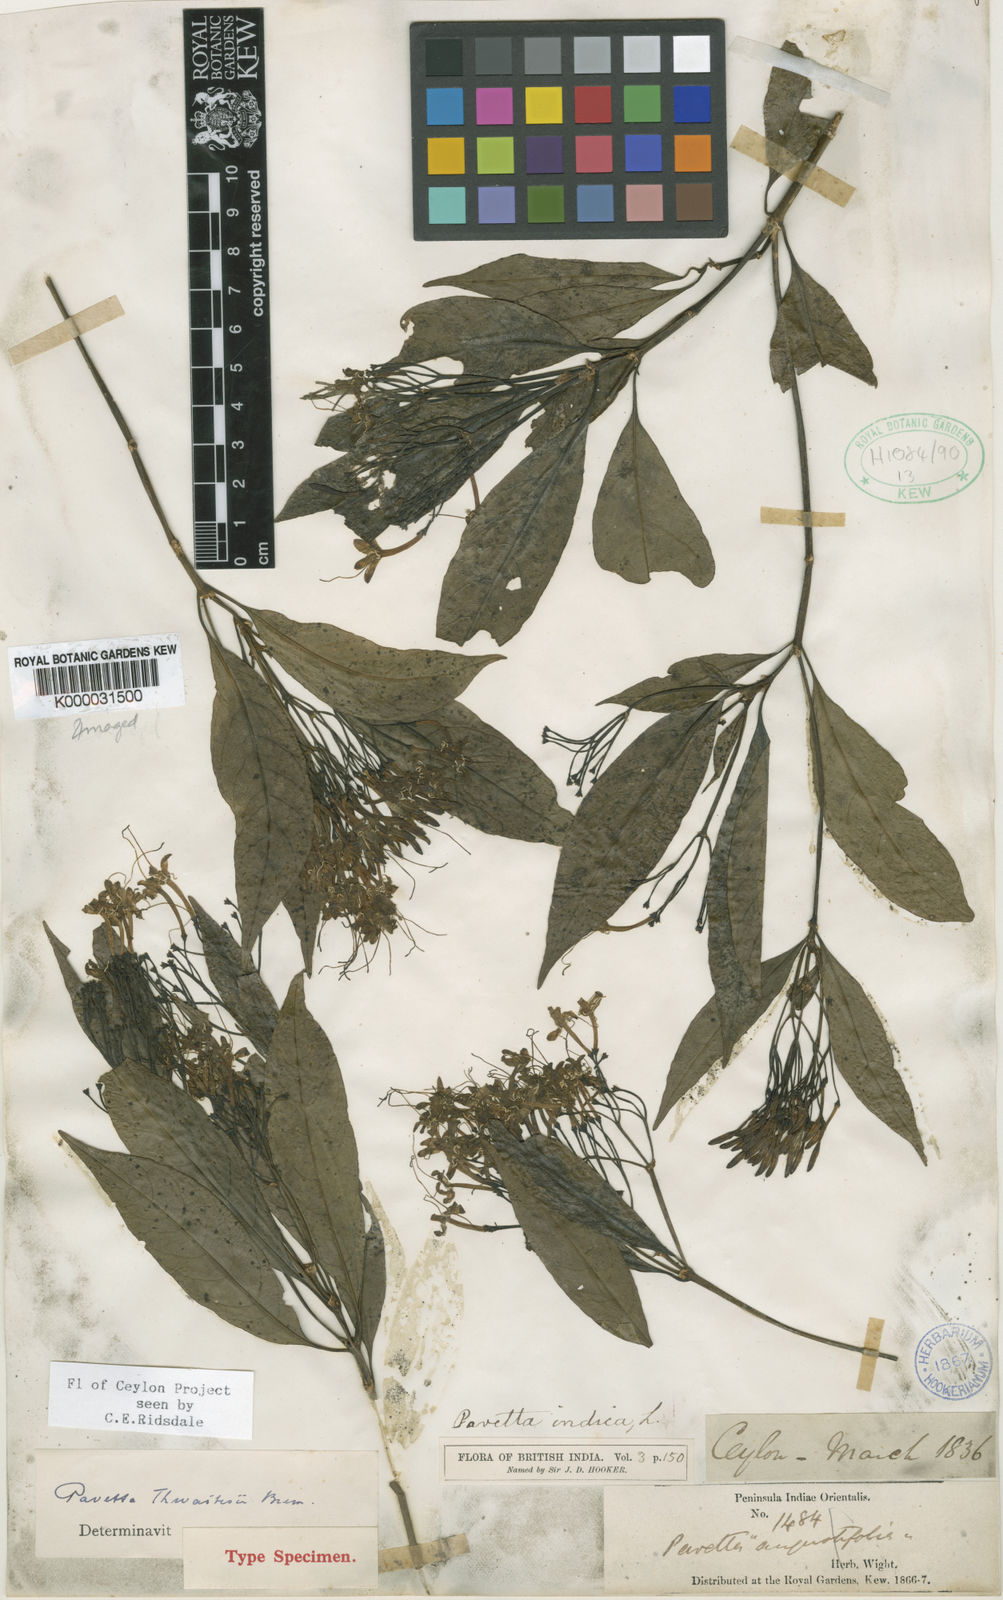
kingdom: Plantae
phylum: Tracheophyta
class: Magnoliopsida
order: Gentianales
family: Rubiaceae
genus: Pavetta
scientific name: Pavetta blanda
